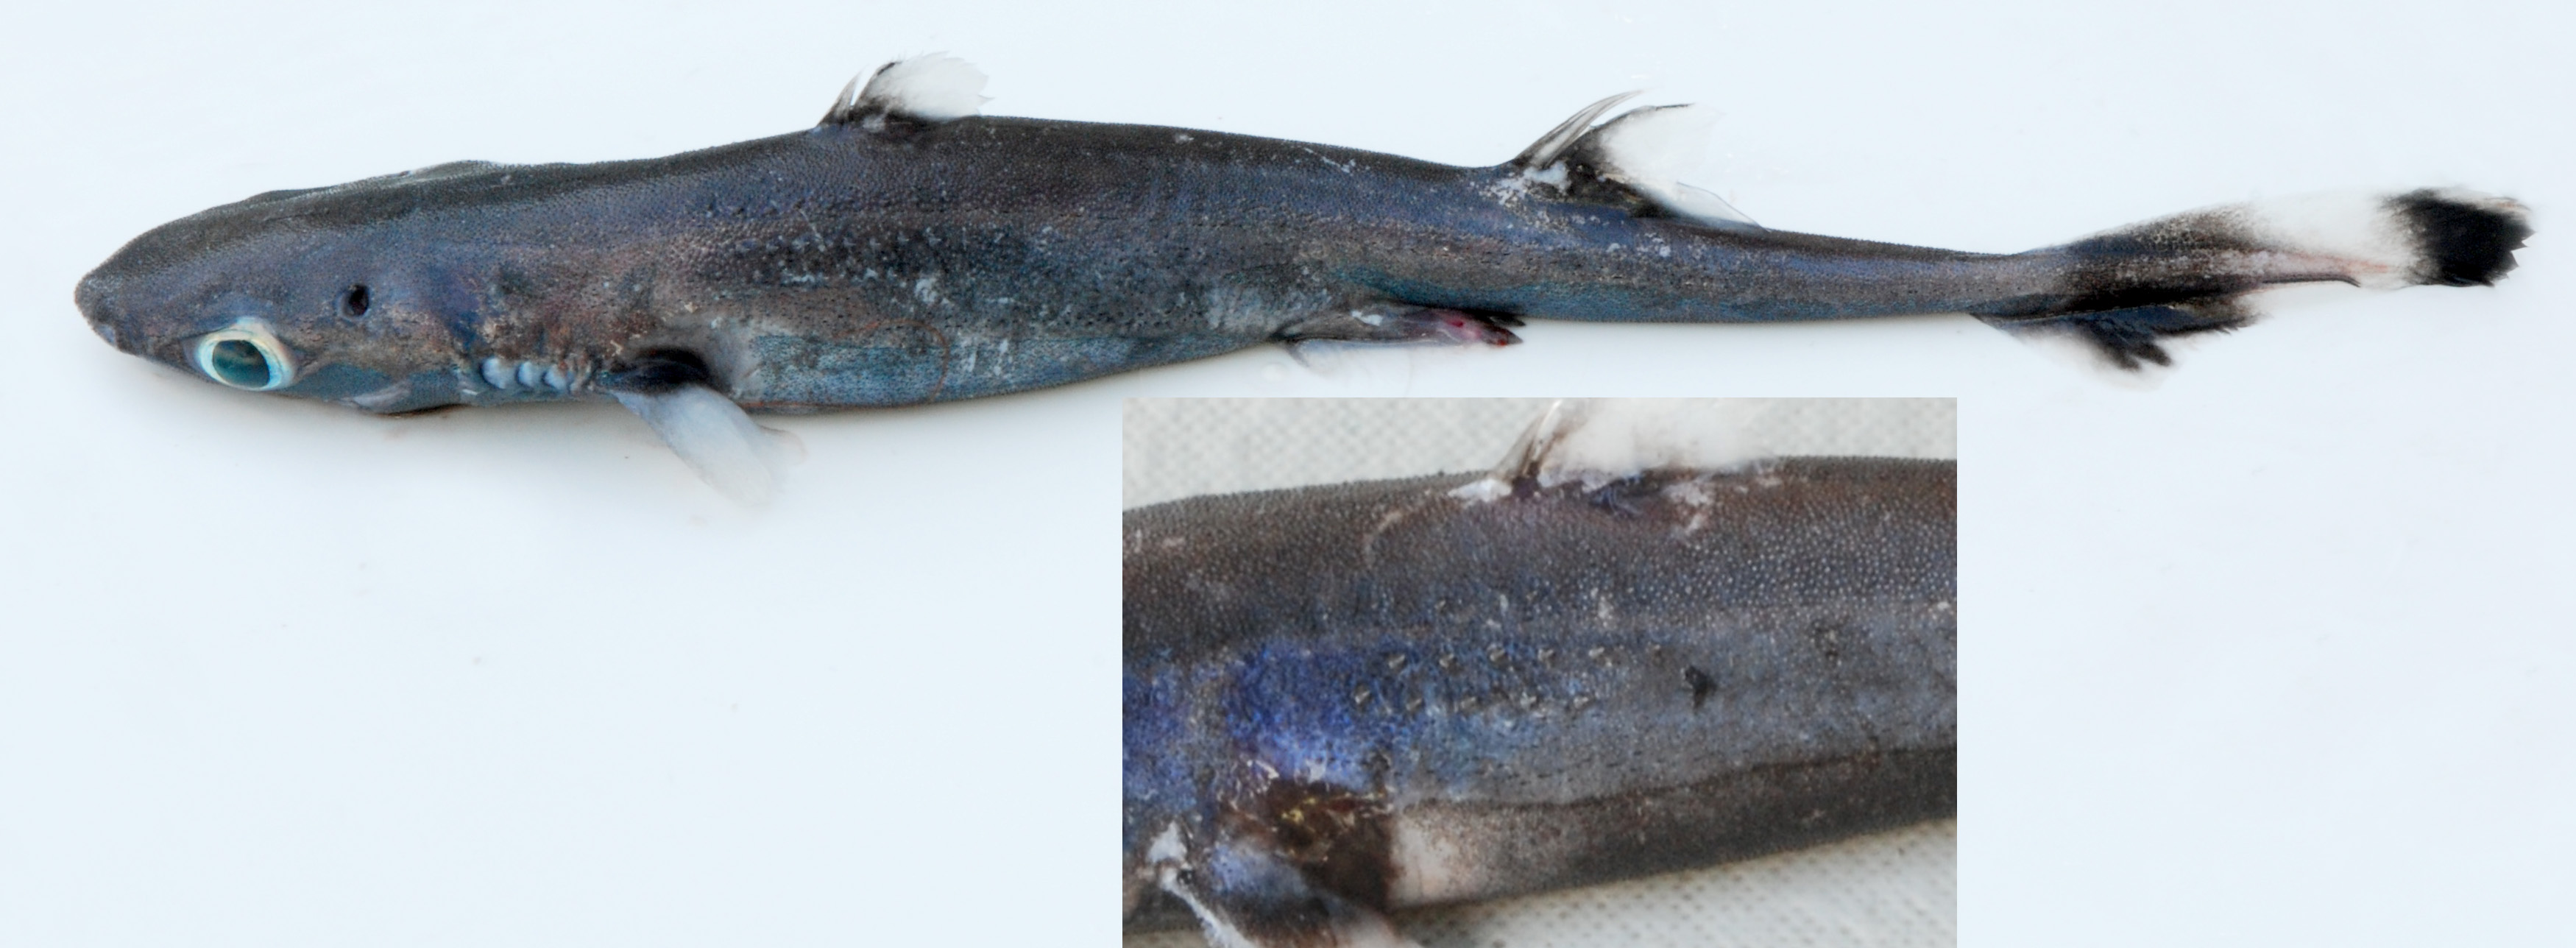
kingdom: Animalia
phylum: Chordata
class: Elasmobranchii
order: Carcharhiniformes
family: Scyliorhinidae
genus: Bythaelurus
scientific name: Bythaelurus lutarius
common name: Mud catshark
